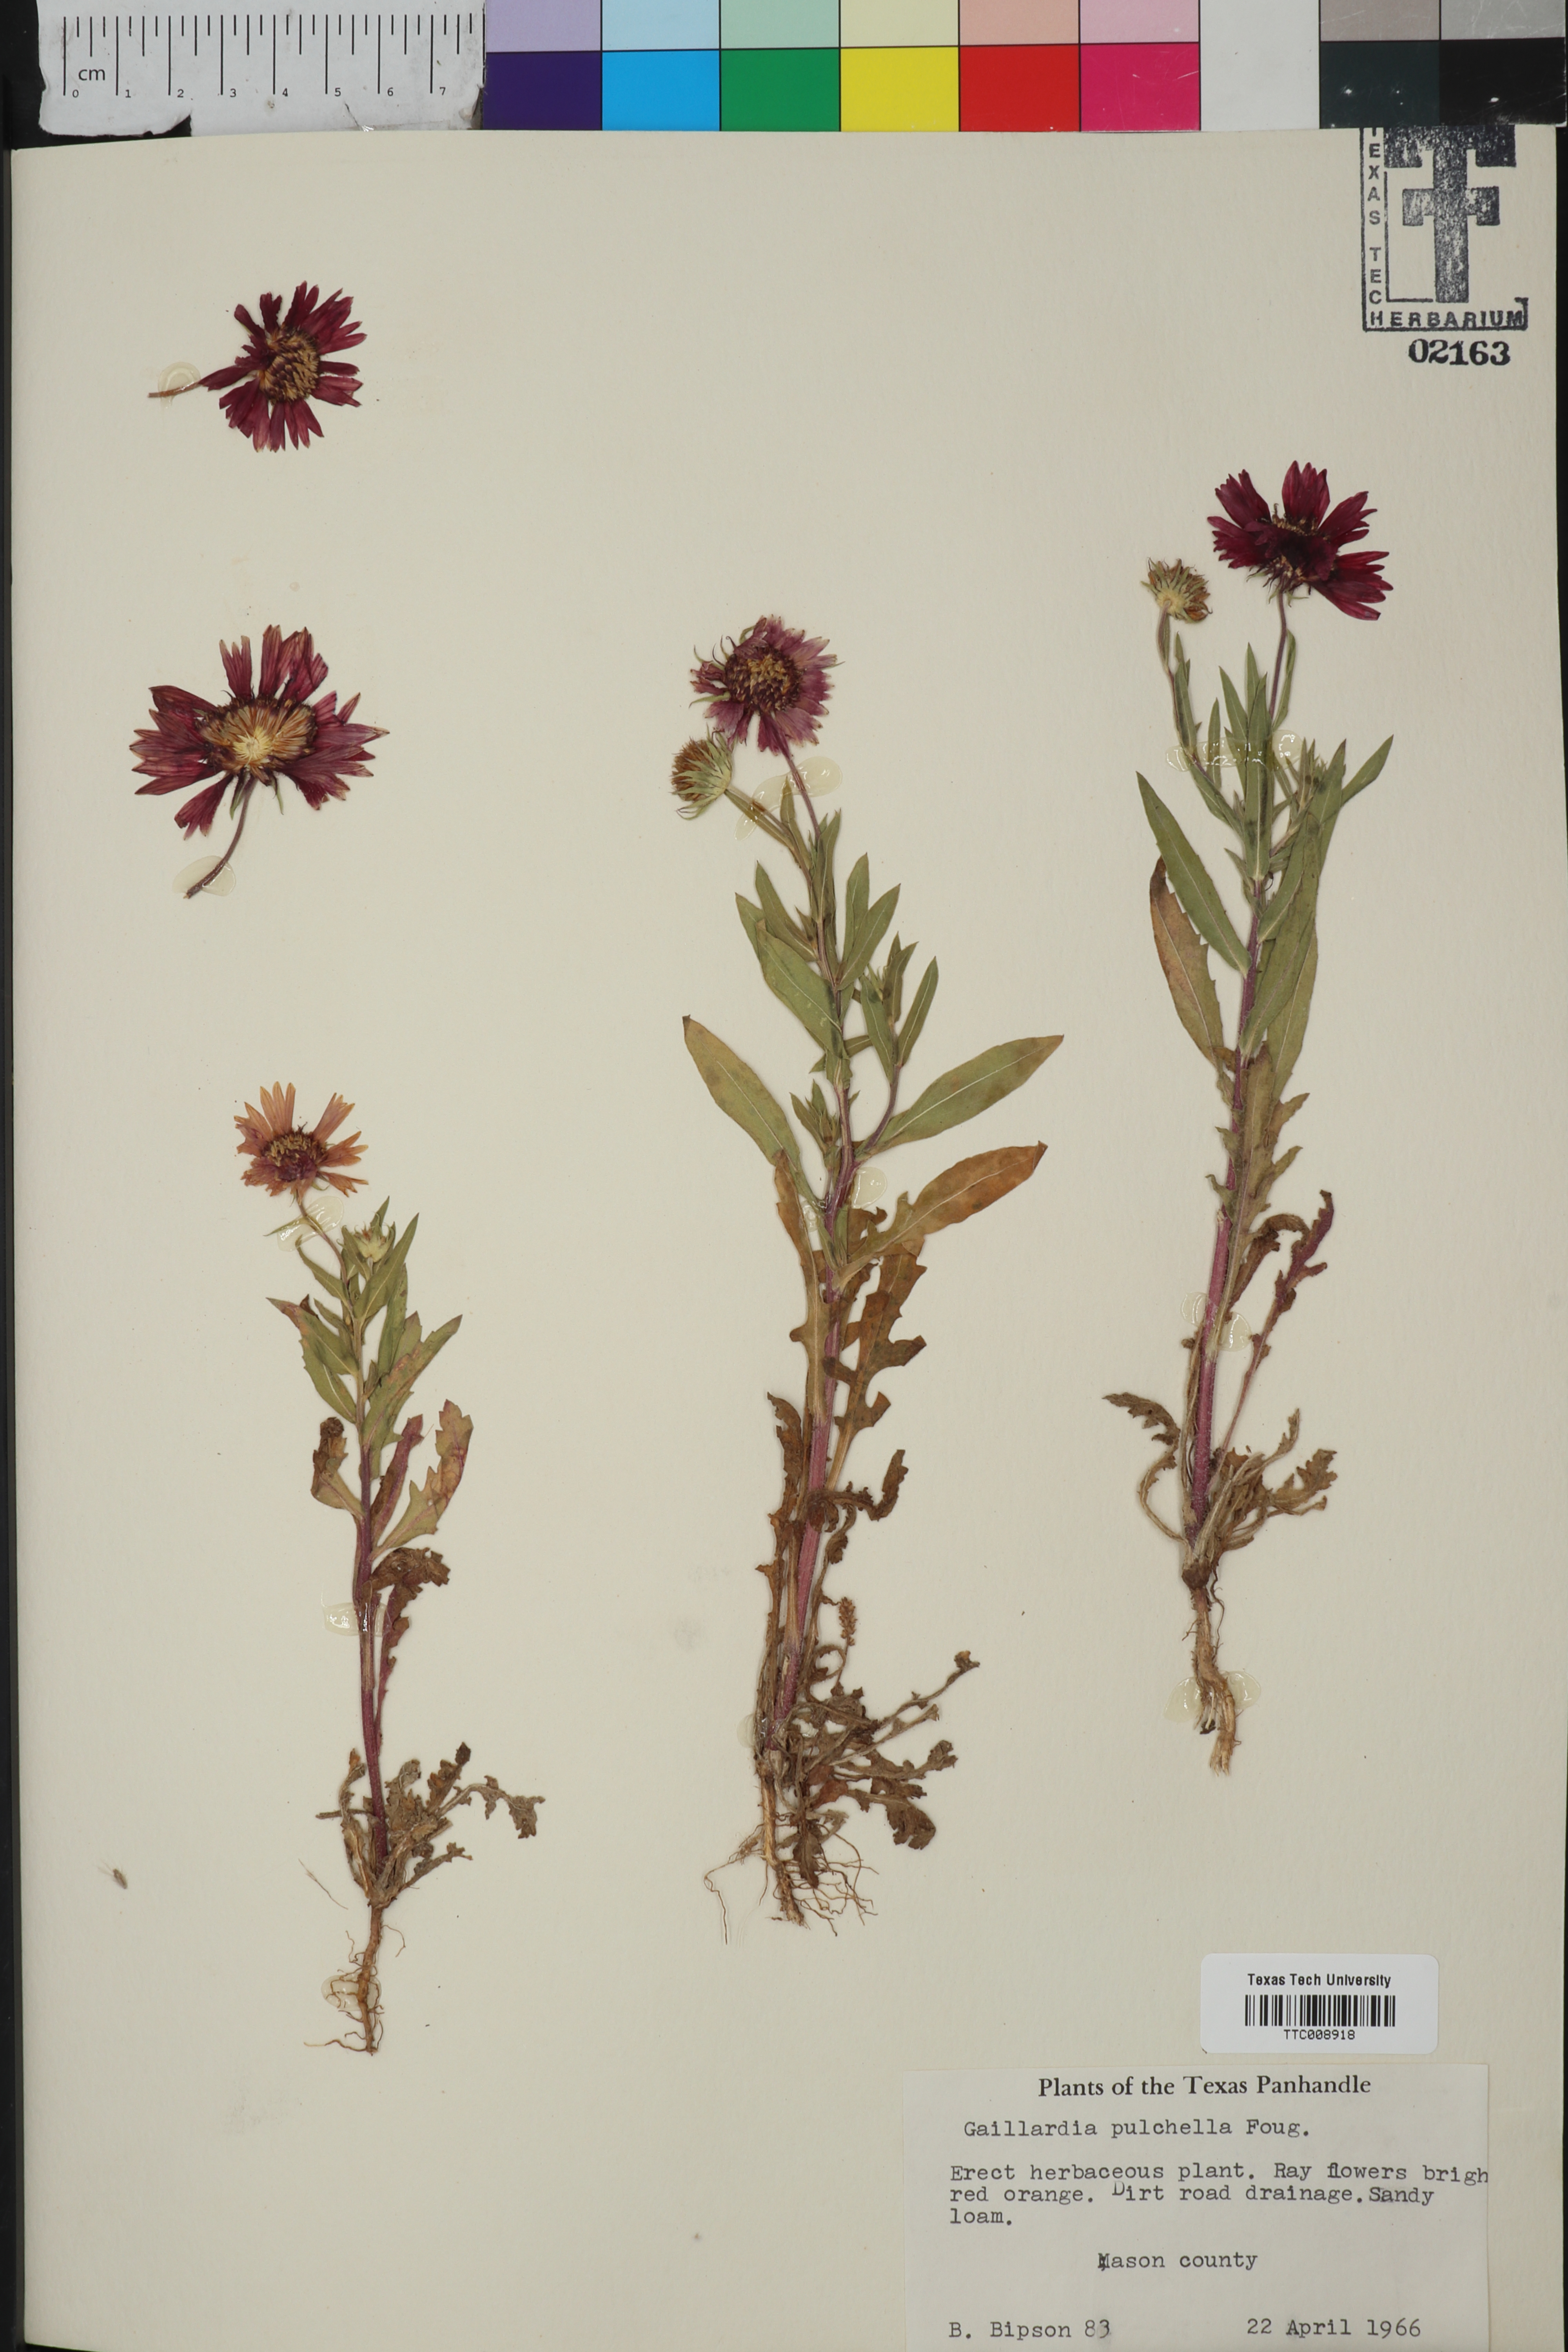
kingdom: Plantae
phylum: Tracheophyta
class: Magnoliopsida
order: Asterales
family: Asteraceae
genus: Gaillardia
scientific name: Gaillardia pulchella
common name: Firewheel
